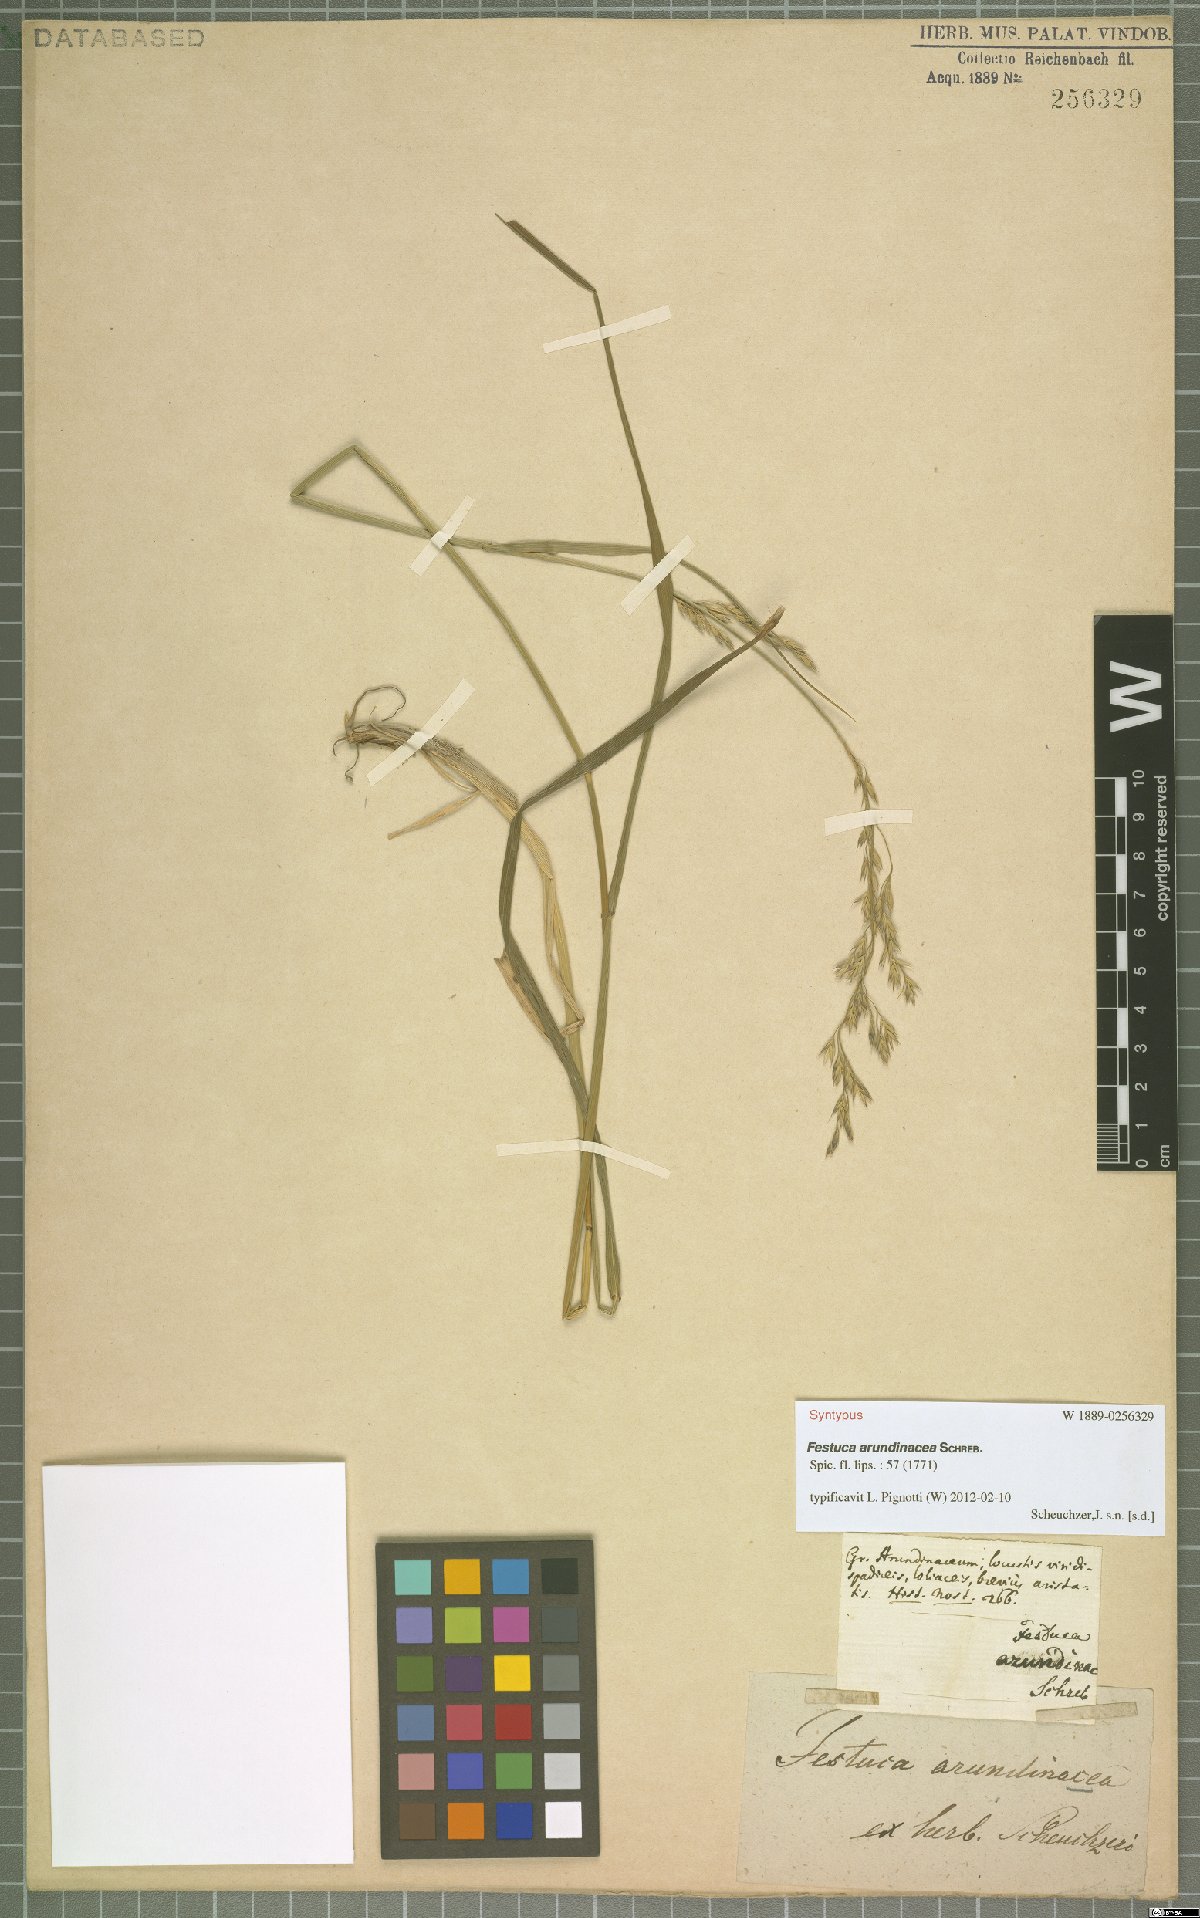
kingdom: Plantae
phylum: Tracheophyta
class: Liliopsida
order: Poales
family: Poaceae
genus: Lolium
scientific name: Lolium arundinaceum
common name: Reed fescue
